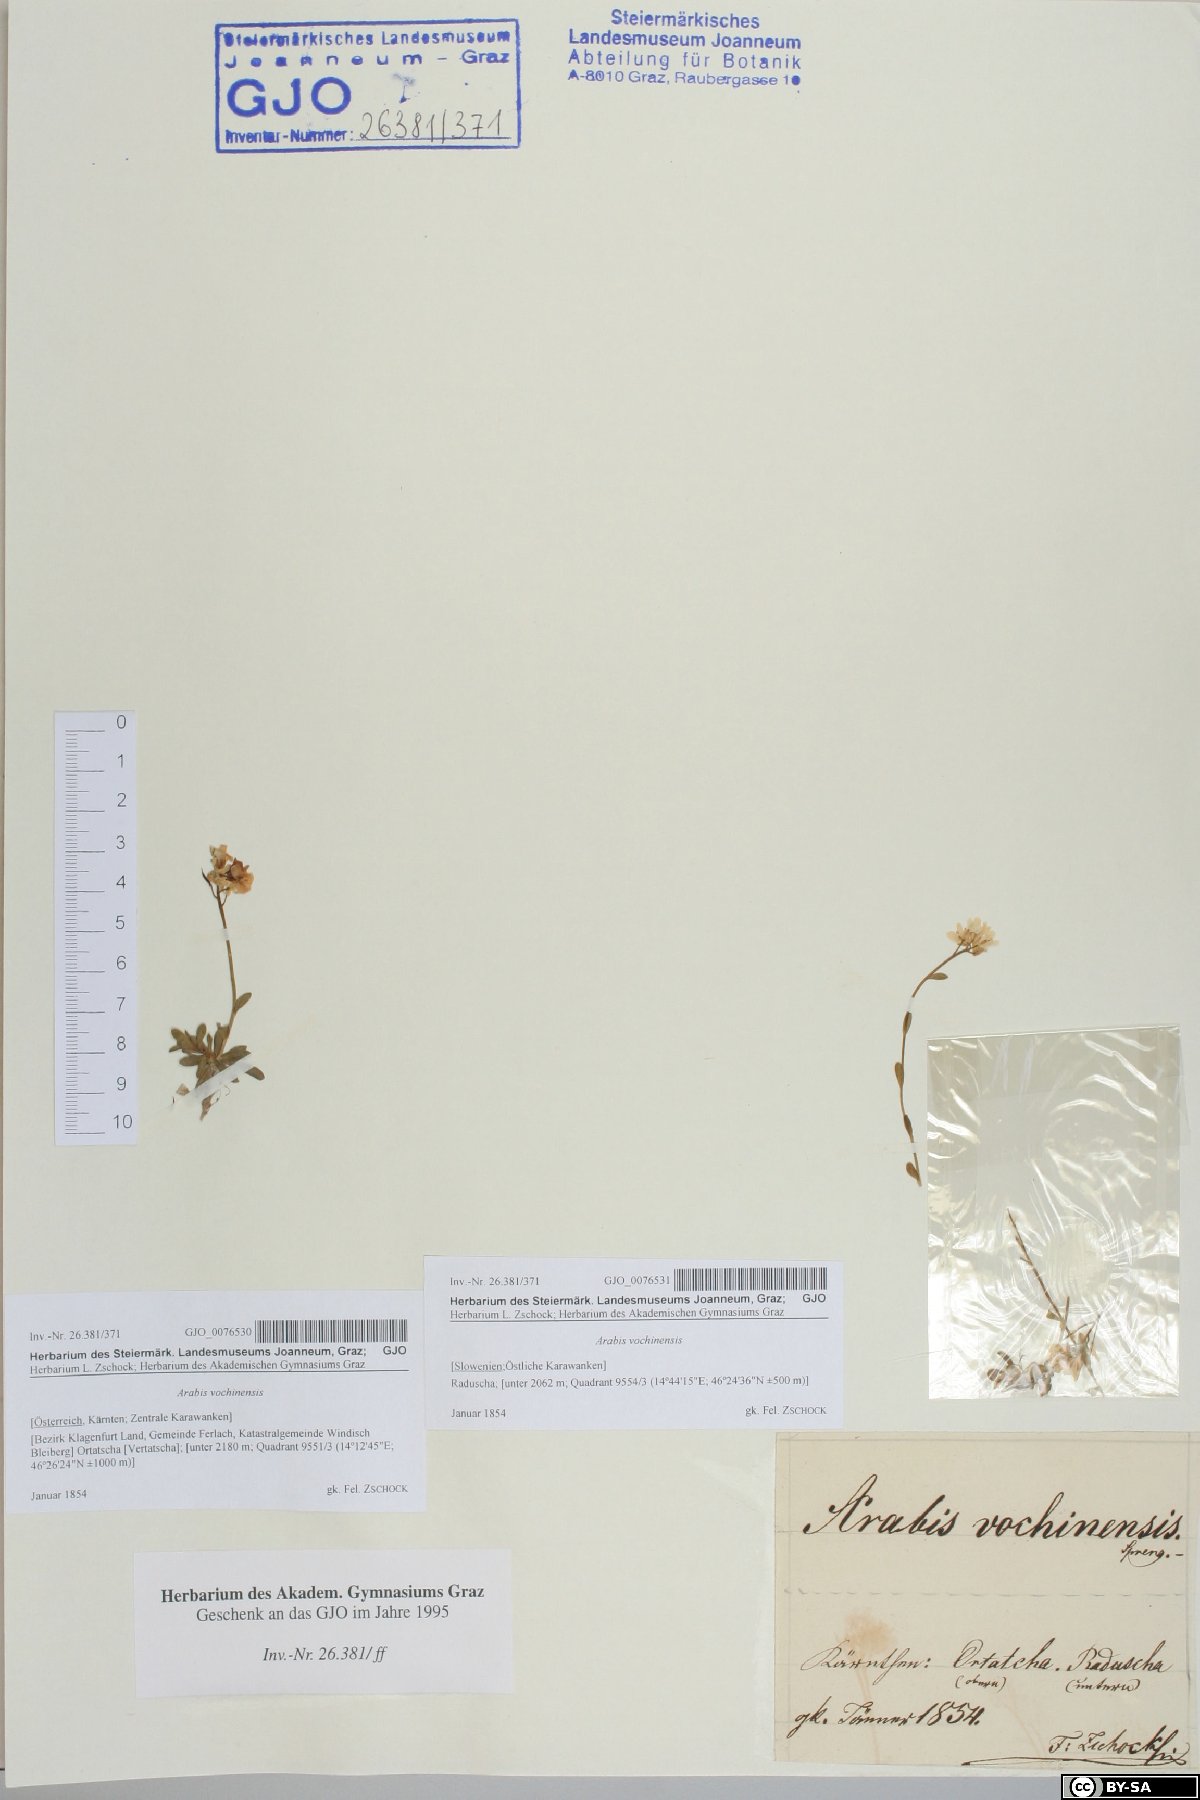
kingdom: Plantae
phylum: Tracheophyta
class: Magnoliopsida
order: Brassicales
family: Brassicaceae
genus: Arabis
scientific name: Arabis vochinensis
